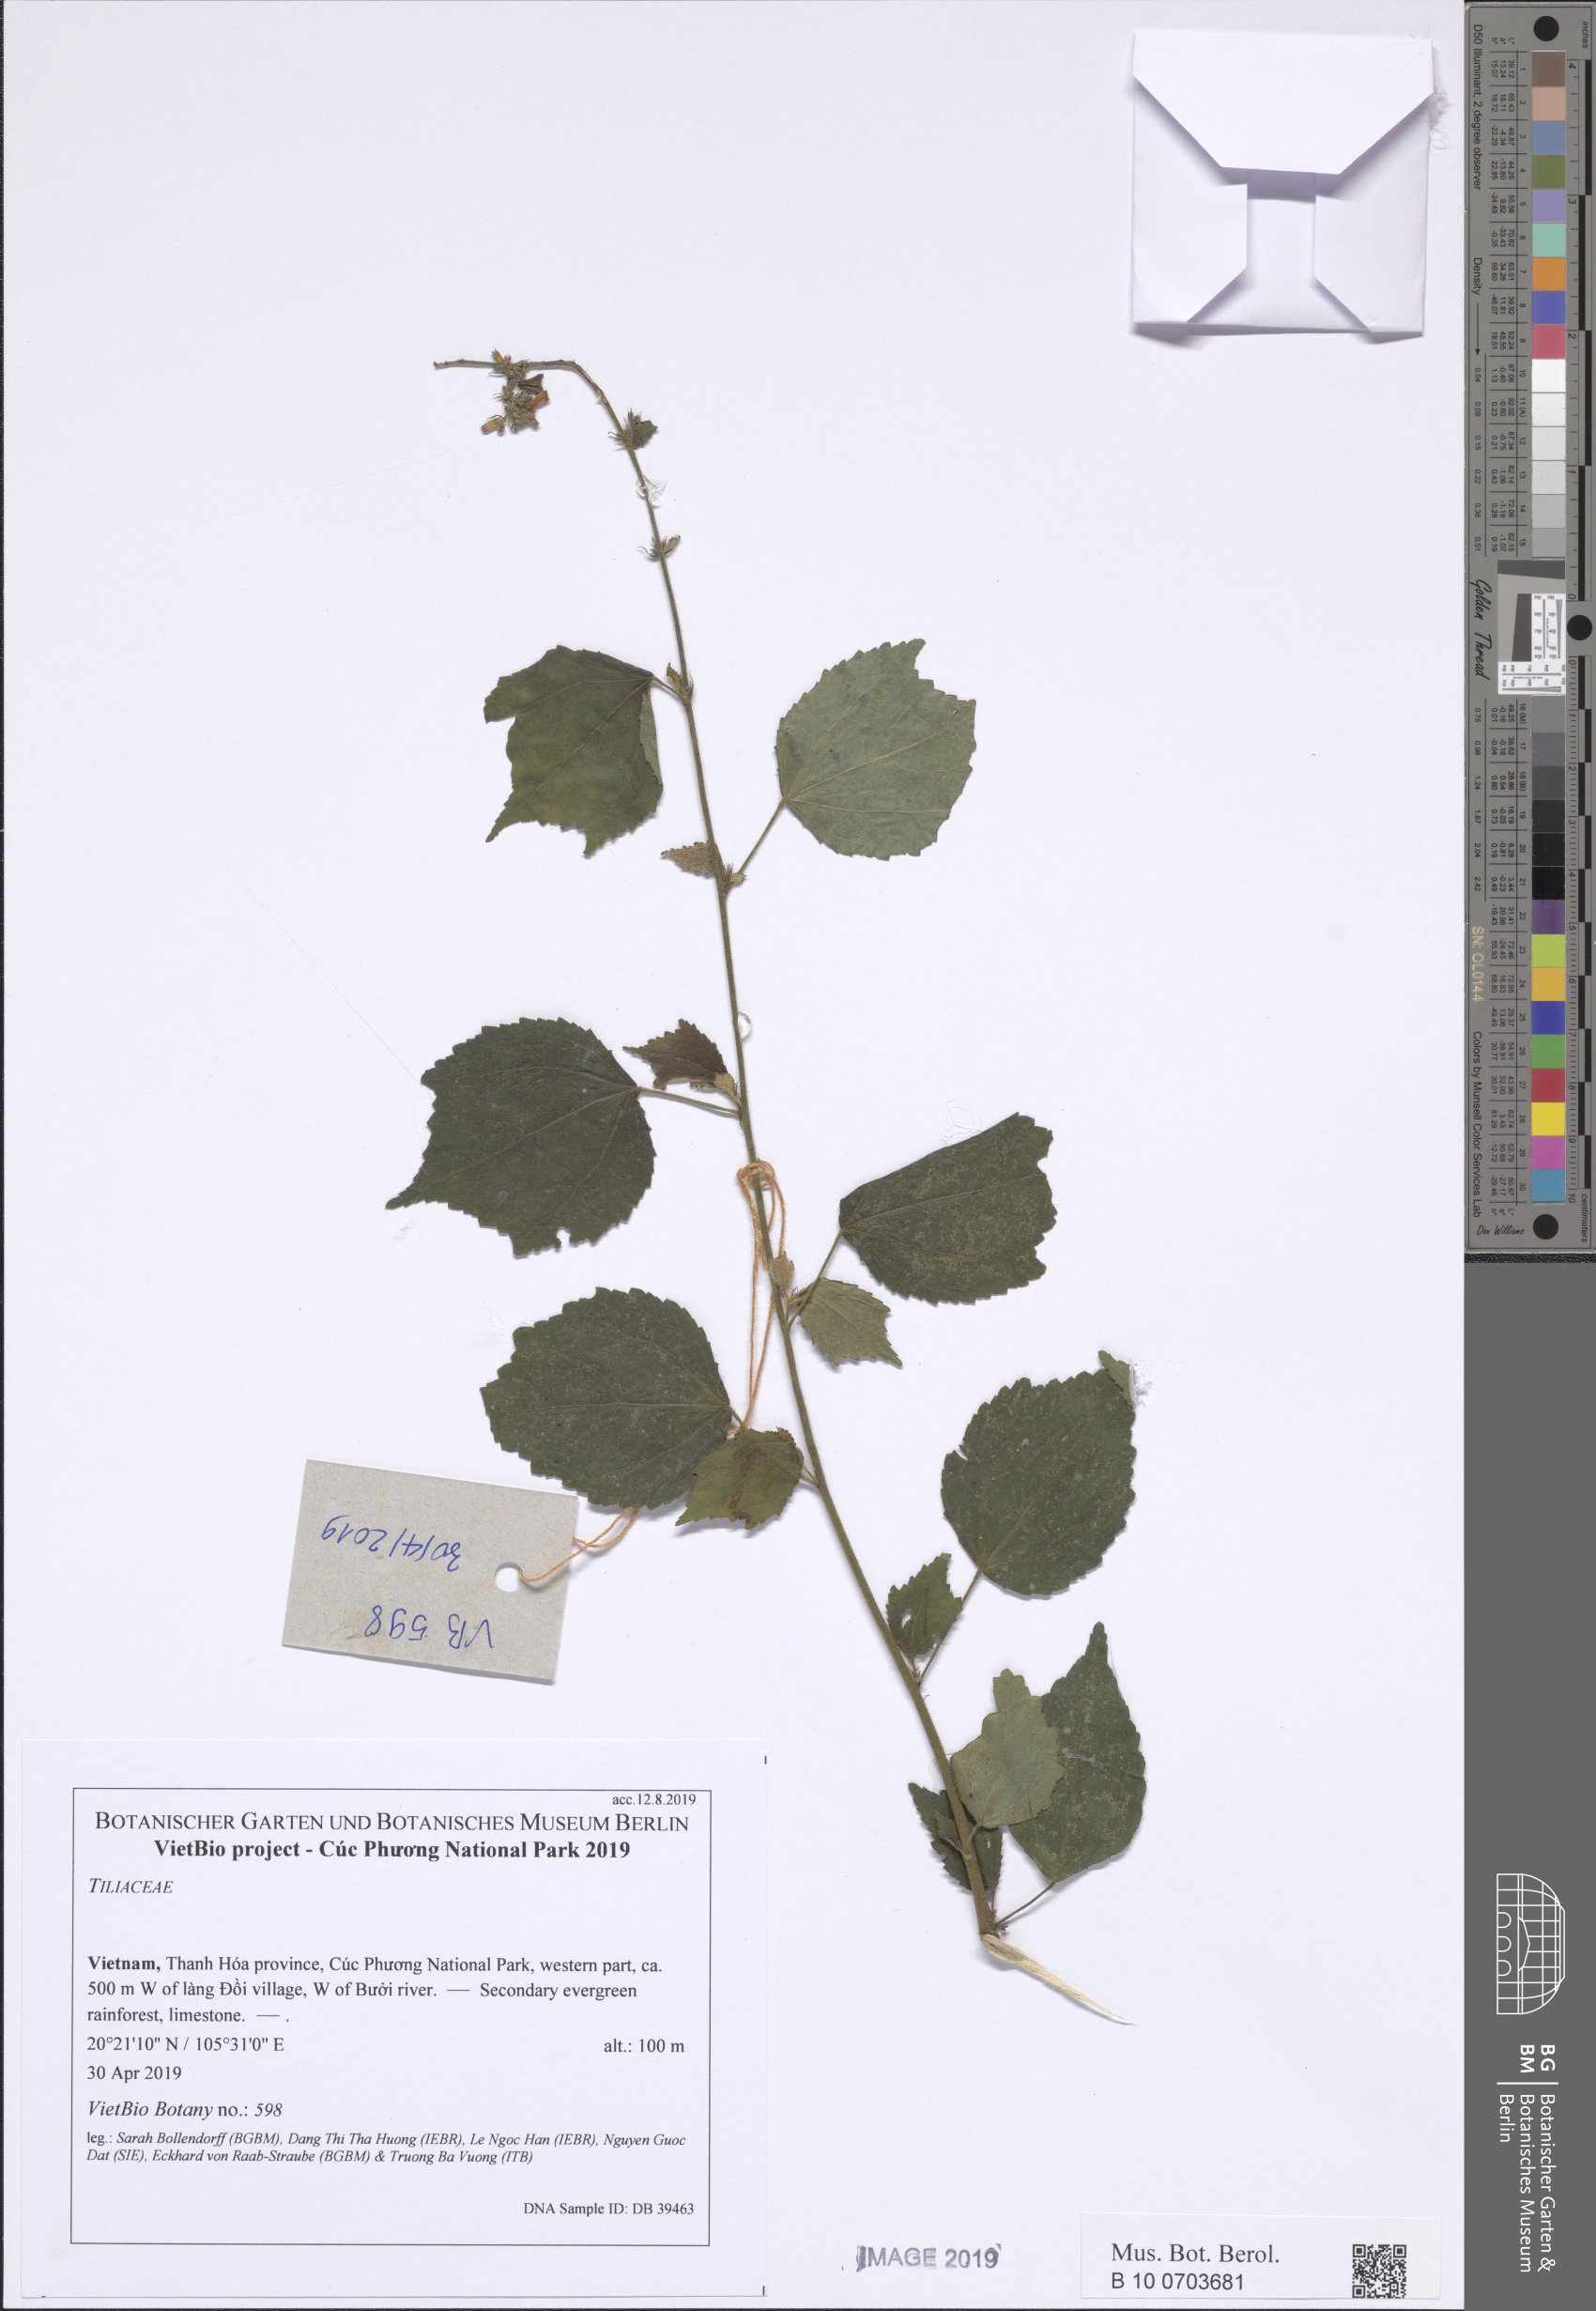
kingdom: Plantae
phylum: Tracheophyta
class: Magnoliopsida
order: Malvales
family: Malvaceae
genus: Triumfetta
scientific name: Triumfetta rotundifolia
